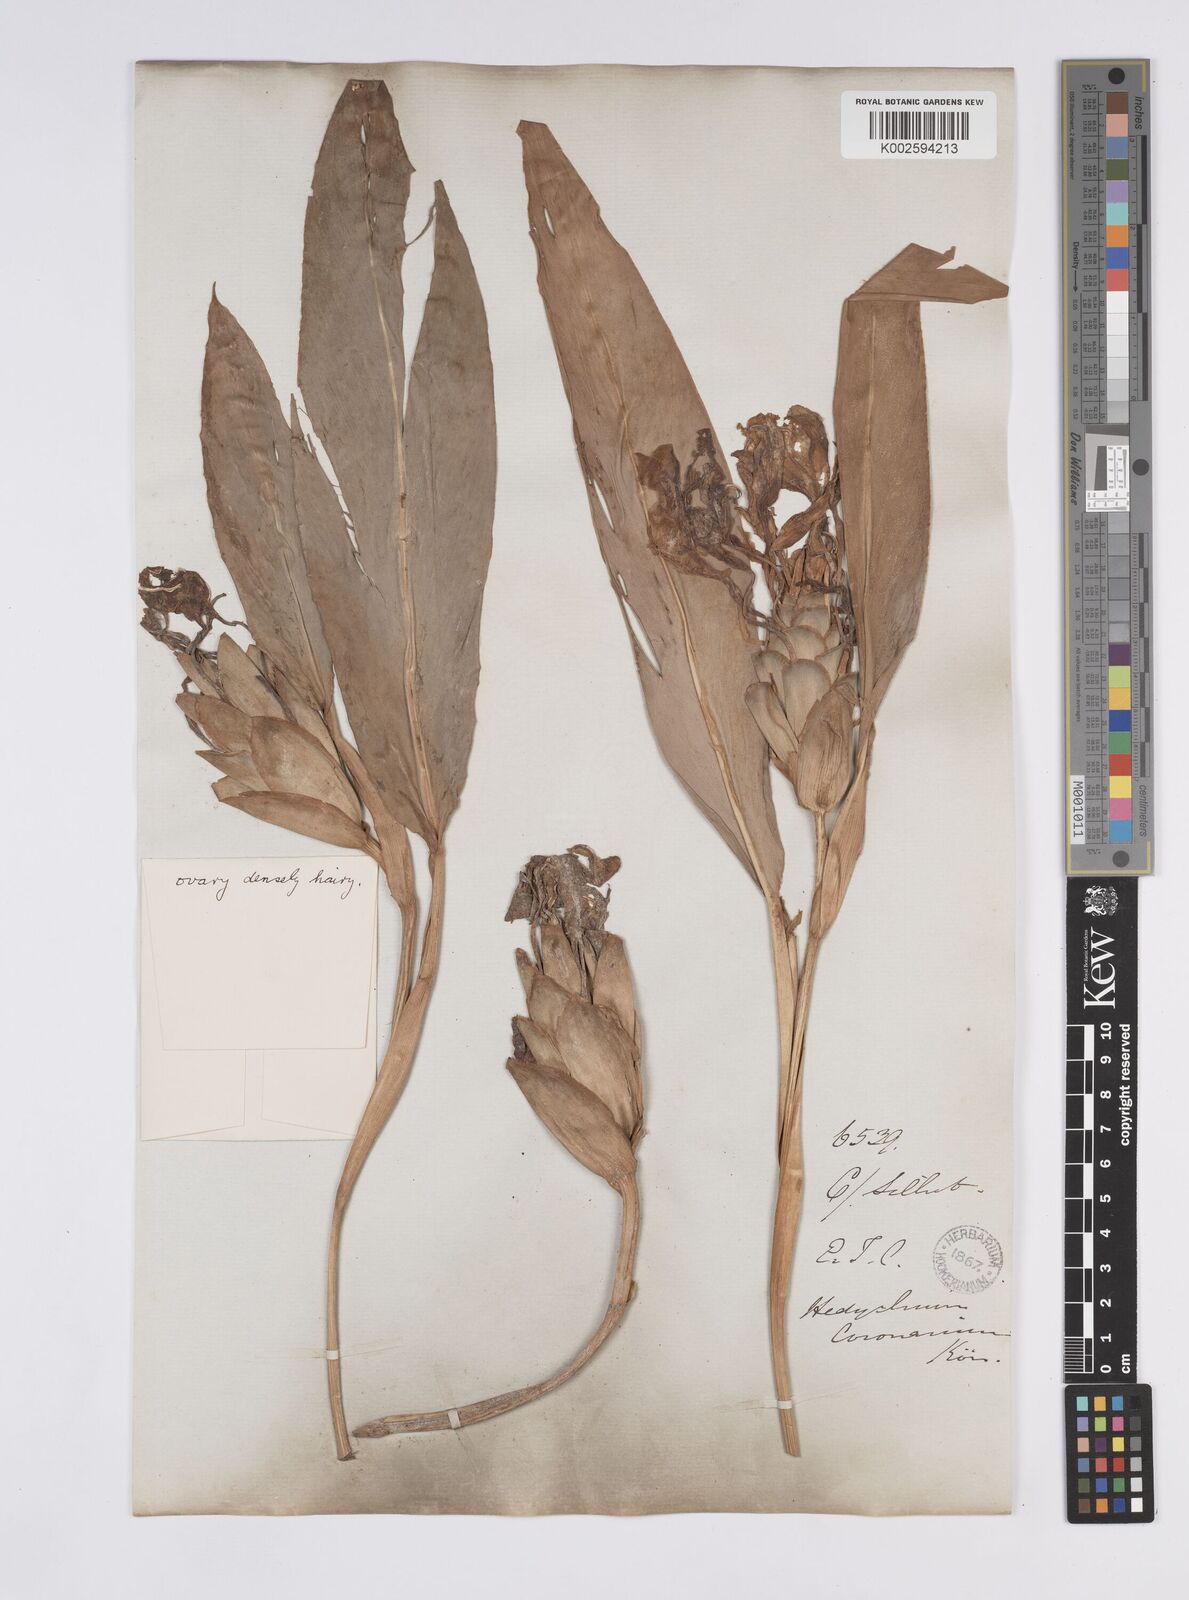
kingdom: Plantae
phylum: Tracheophyta
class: Liliopsida
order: Zingiberales
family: Zingiberaceae
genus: Hedychium
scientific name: Hedychium coronarium
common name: White garland-lily
